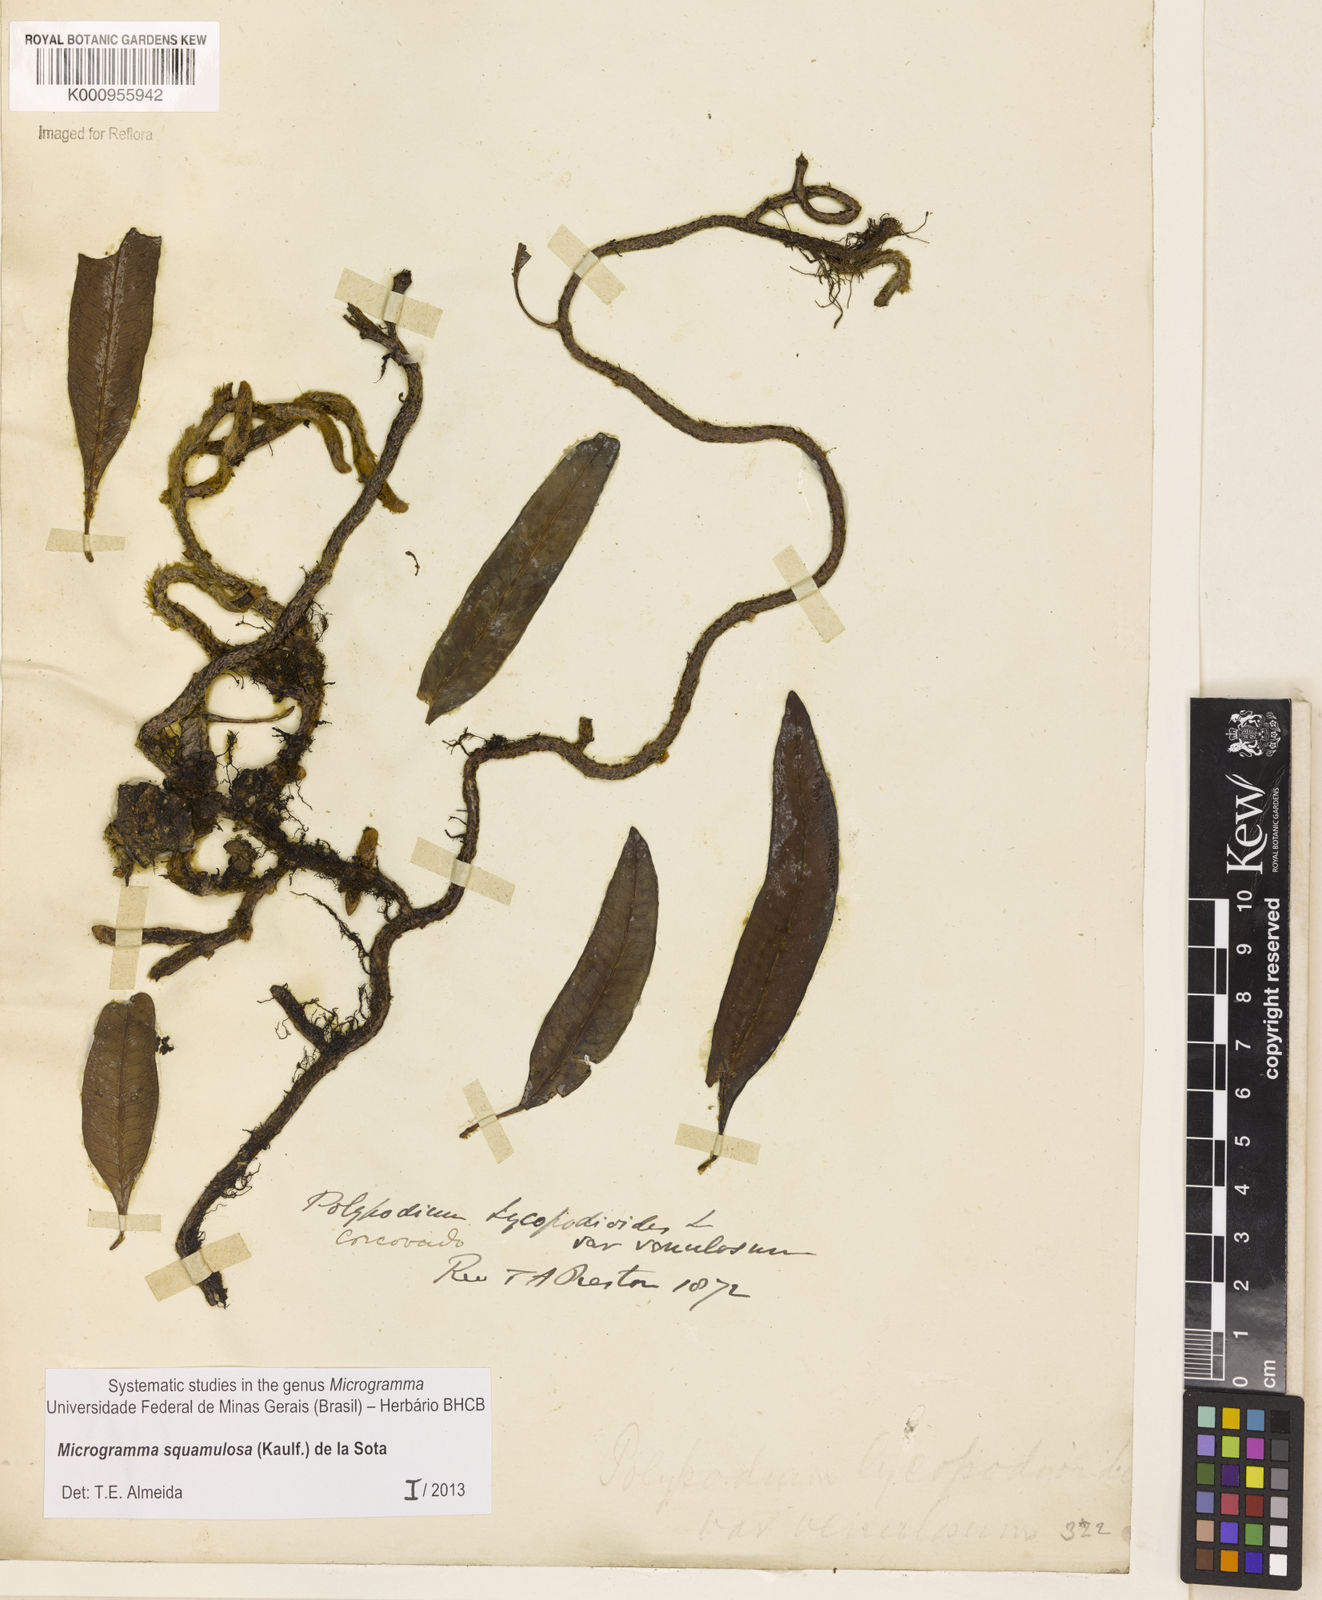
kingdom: Plantae
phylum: Tracheophyta
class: Polypodiopsida
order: Polypodiales
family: Polypodiaceae
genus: Microgramma
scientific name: Microgramma squamulosa
